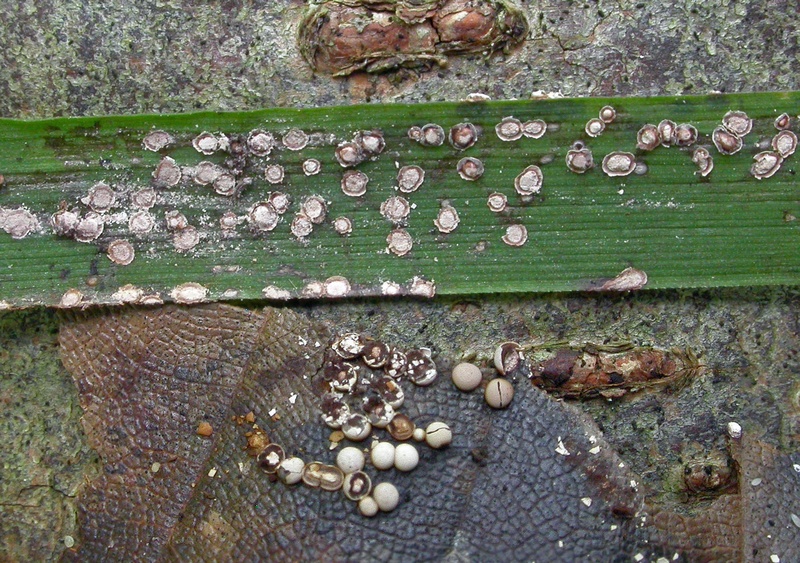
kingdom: Protozoa
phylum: Mycetozoa
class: Myxomycetes
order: Physarales
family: Didymiaceae
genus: Diderma
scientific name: Diderma testaceum
